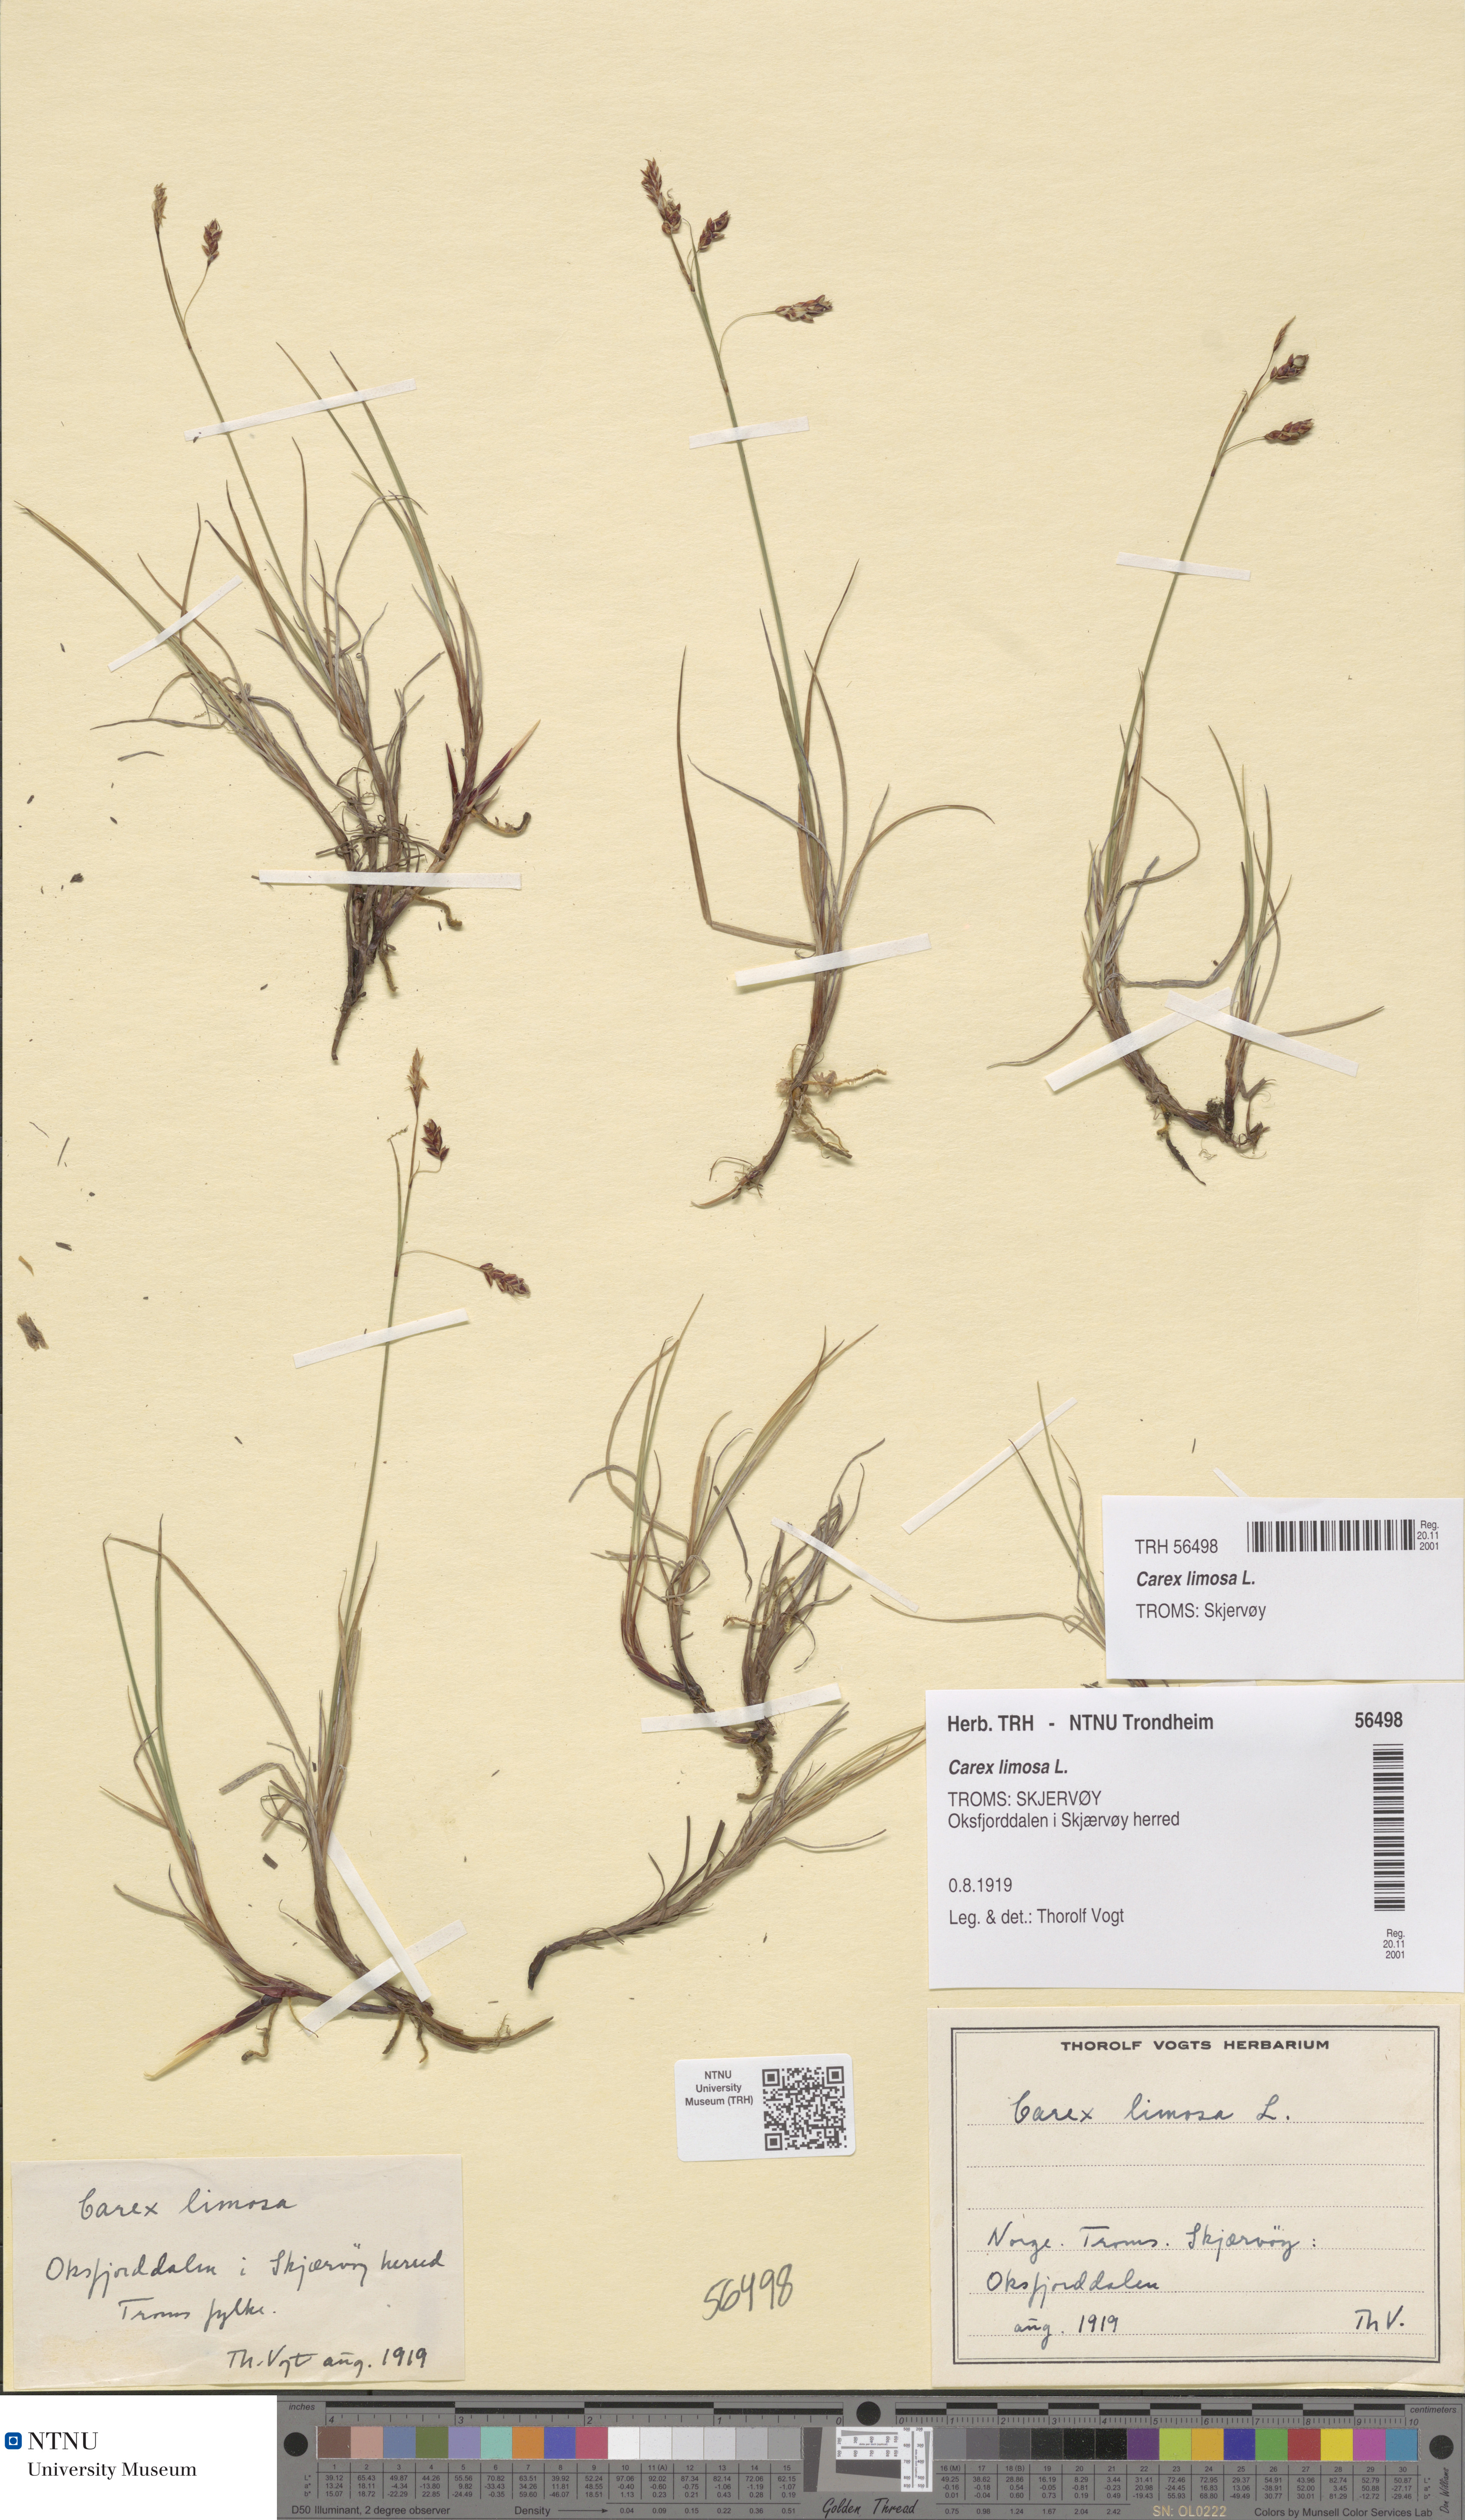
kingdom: Plantae
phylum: Tracheophyta
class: Liliopsida
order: Poales
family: Cyperaceae
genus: Carex
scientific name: Carex limosa
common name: Bog sedge
